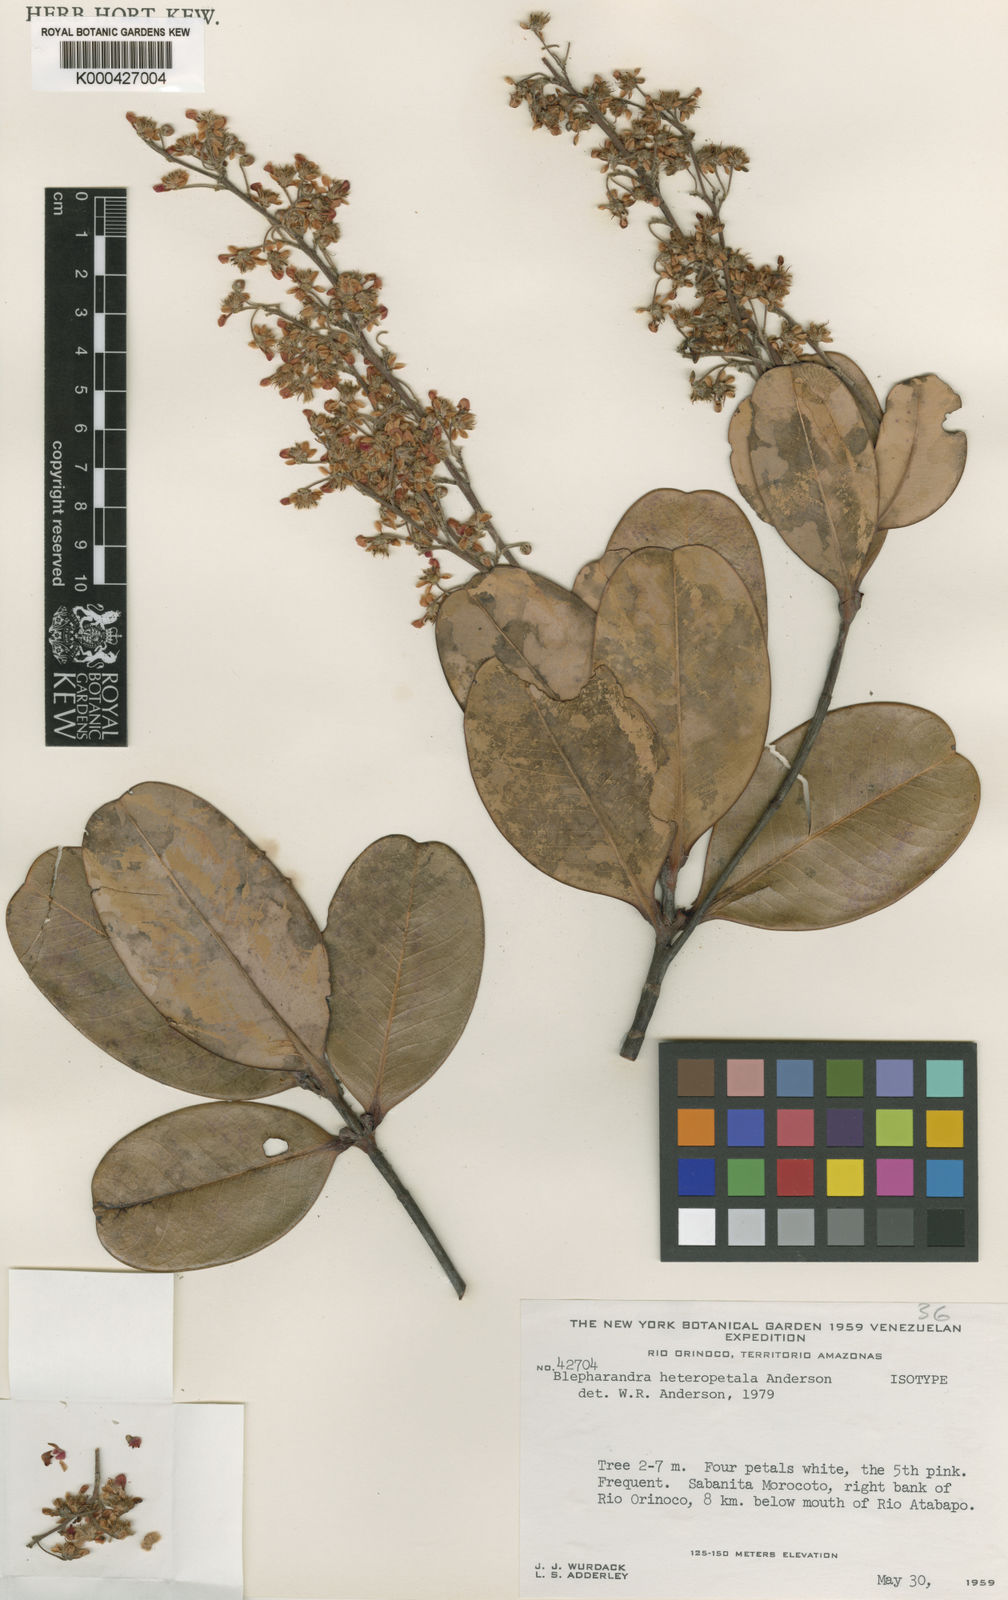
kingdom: Plantae
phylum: Tracheophyta
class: Magnoliopsida
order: Malpighiales
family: Malpighiaceae
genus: Blepharandra
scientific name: Blepharandra heteropetala
